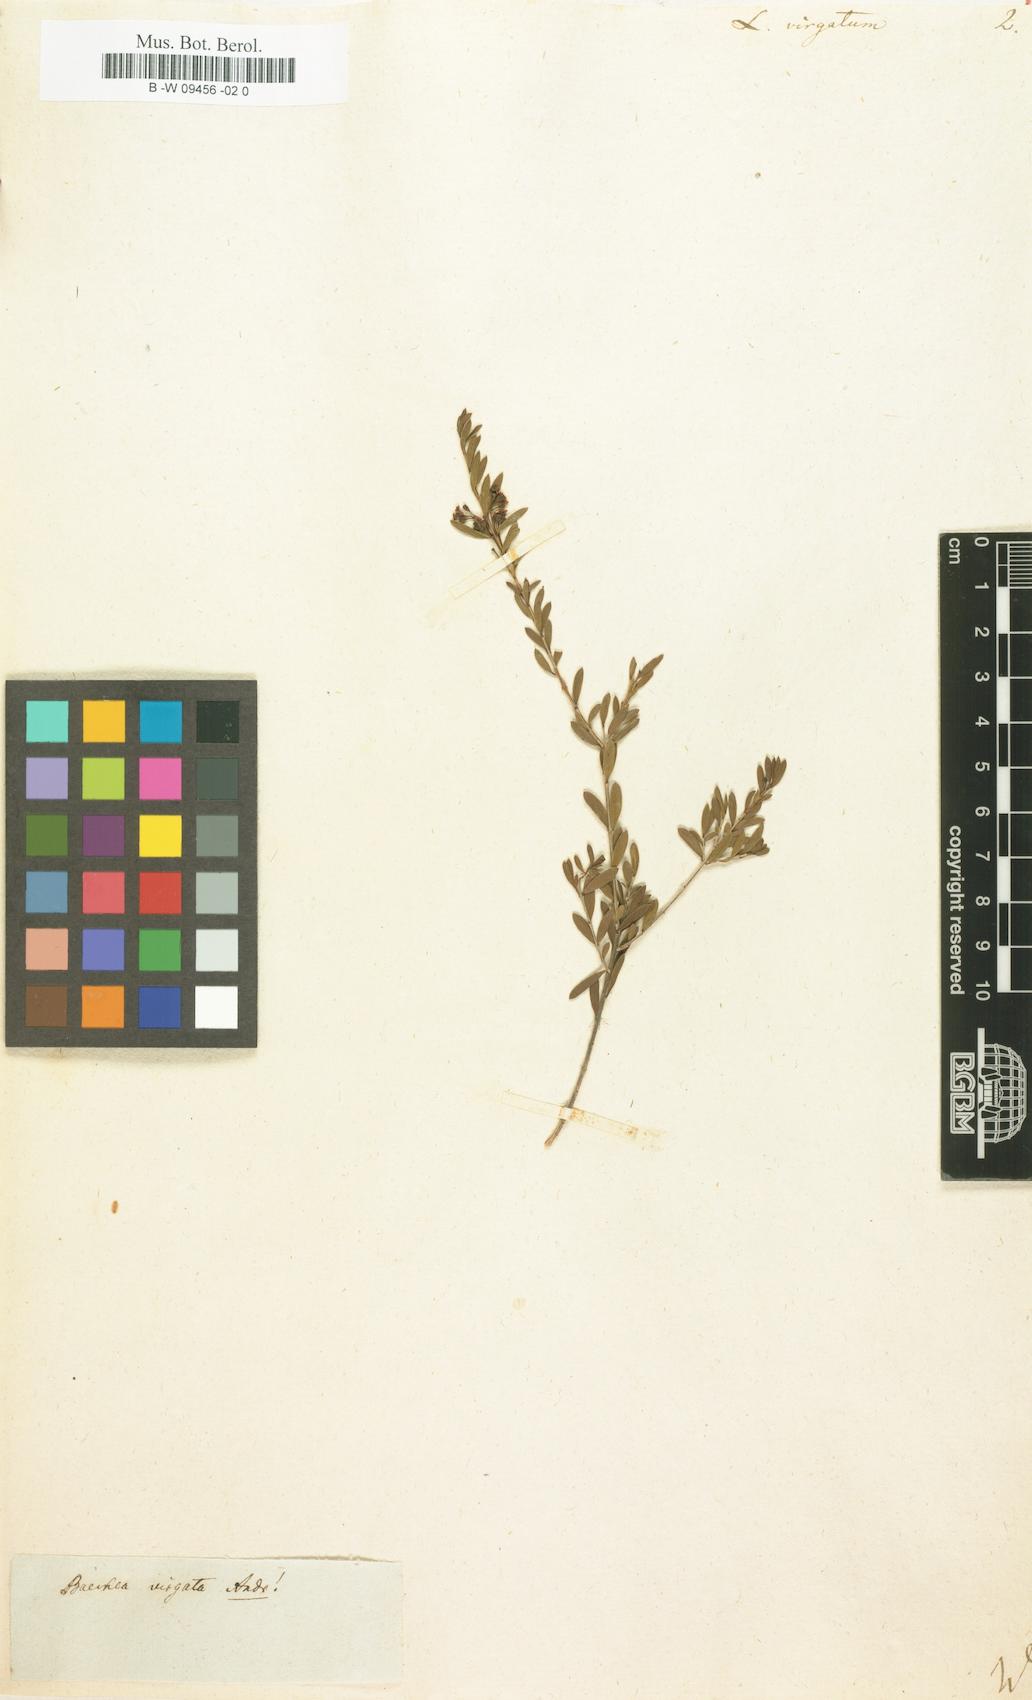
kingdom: Plantae
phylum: Tracheophyta
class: Magnoliopsida
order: Myrtales
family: Myrtaceae
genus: Sannantha
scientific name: Sannantha virgata
